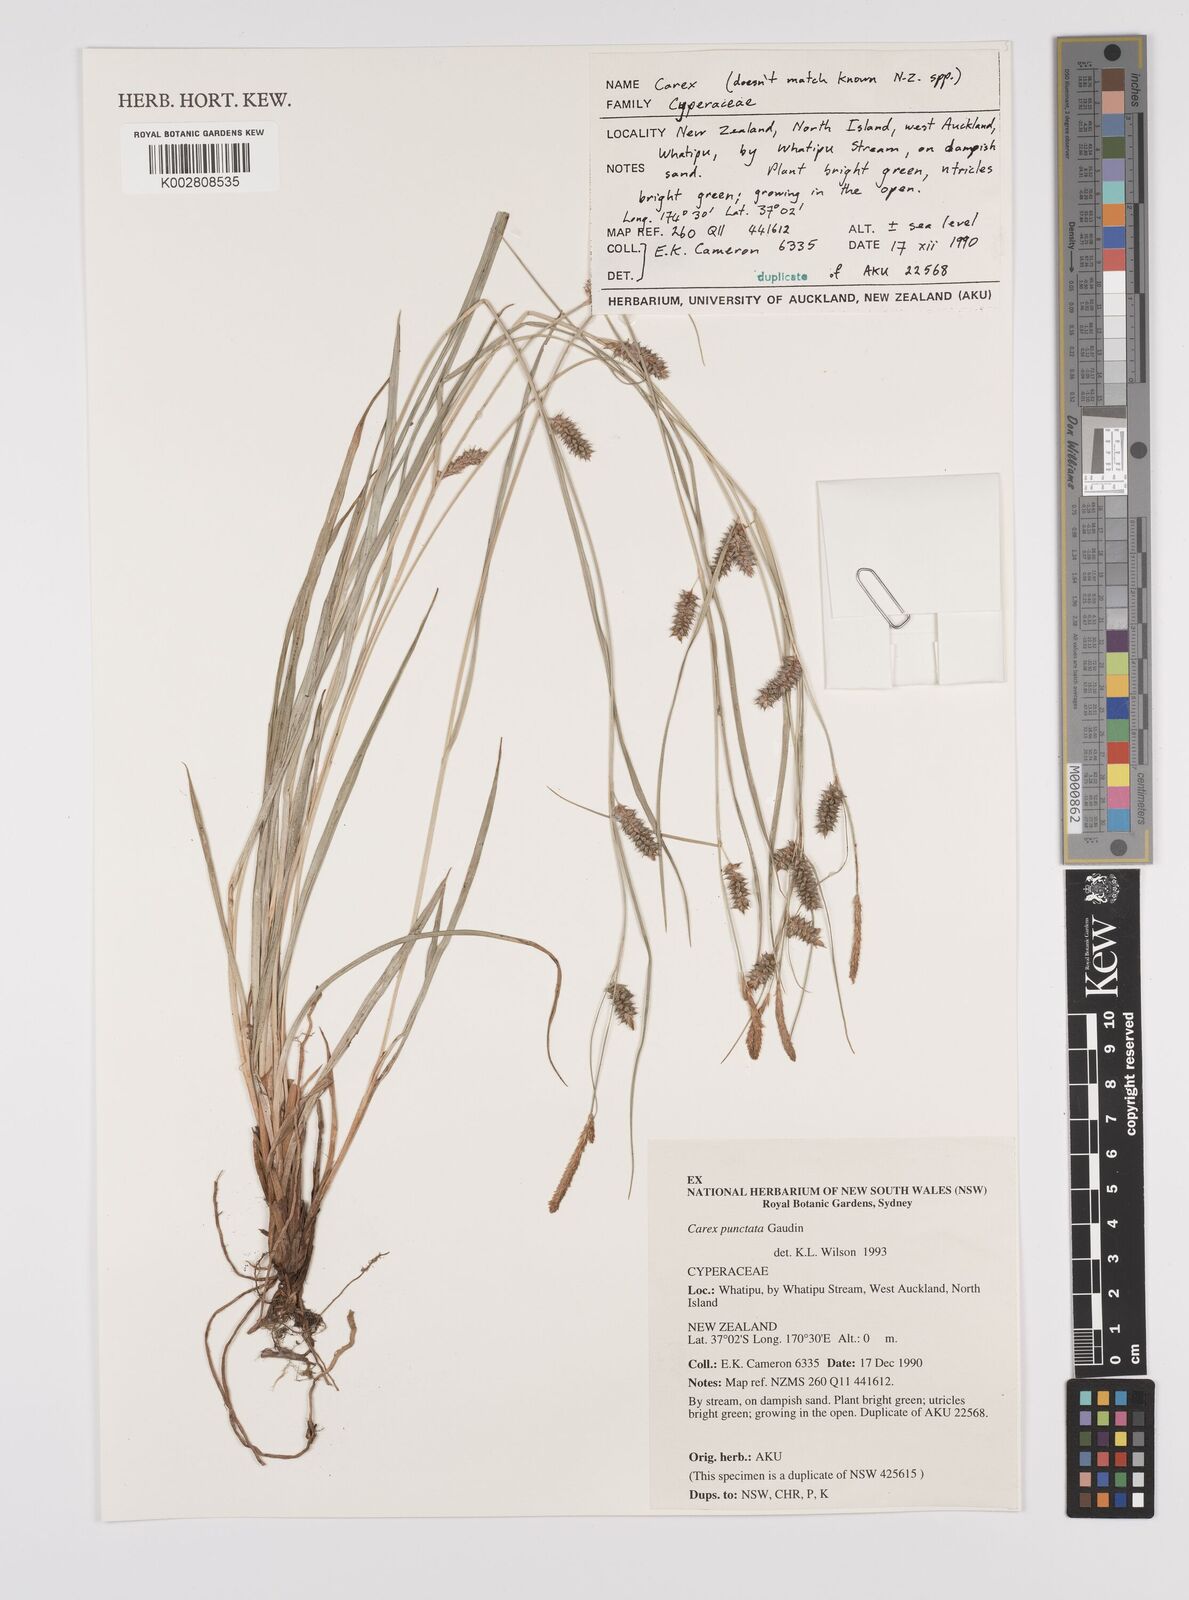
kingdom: Plantae
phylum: Tracheophyta
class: Liliopsida
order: Poales
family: Cyperaceae
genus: Carex
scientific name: Carex punctata
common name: Dotted sedge
